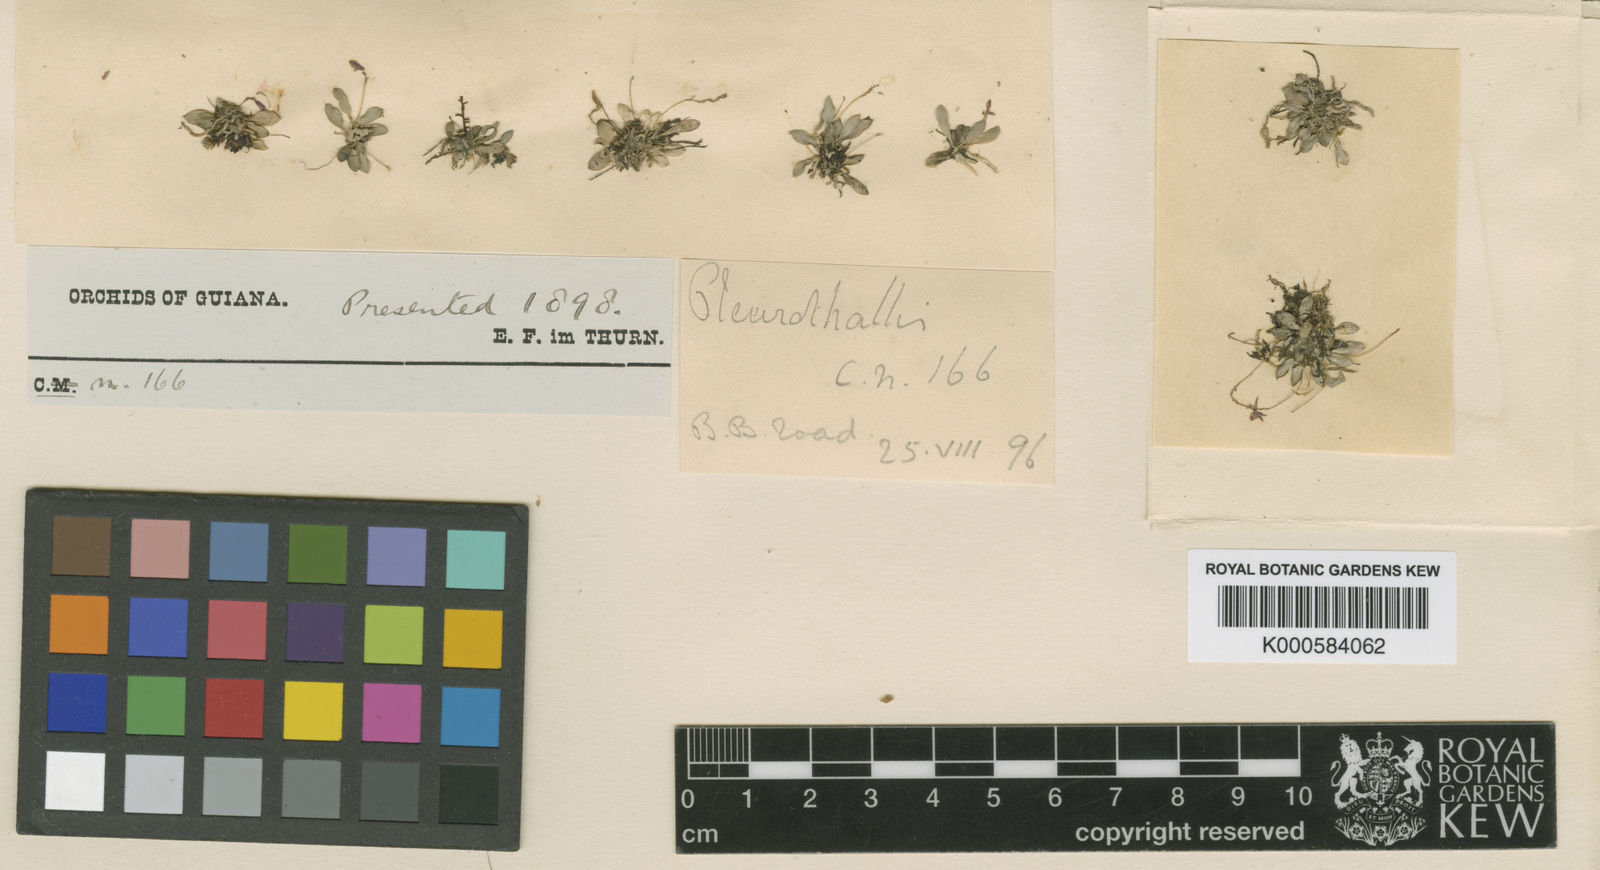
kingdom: Plantae
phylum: Tracheophyta
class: Liliopsida
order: Asparagales
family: Orchidaceae
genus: Anathallis
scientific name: Anathallis minima
